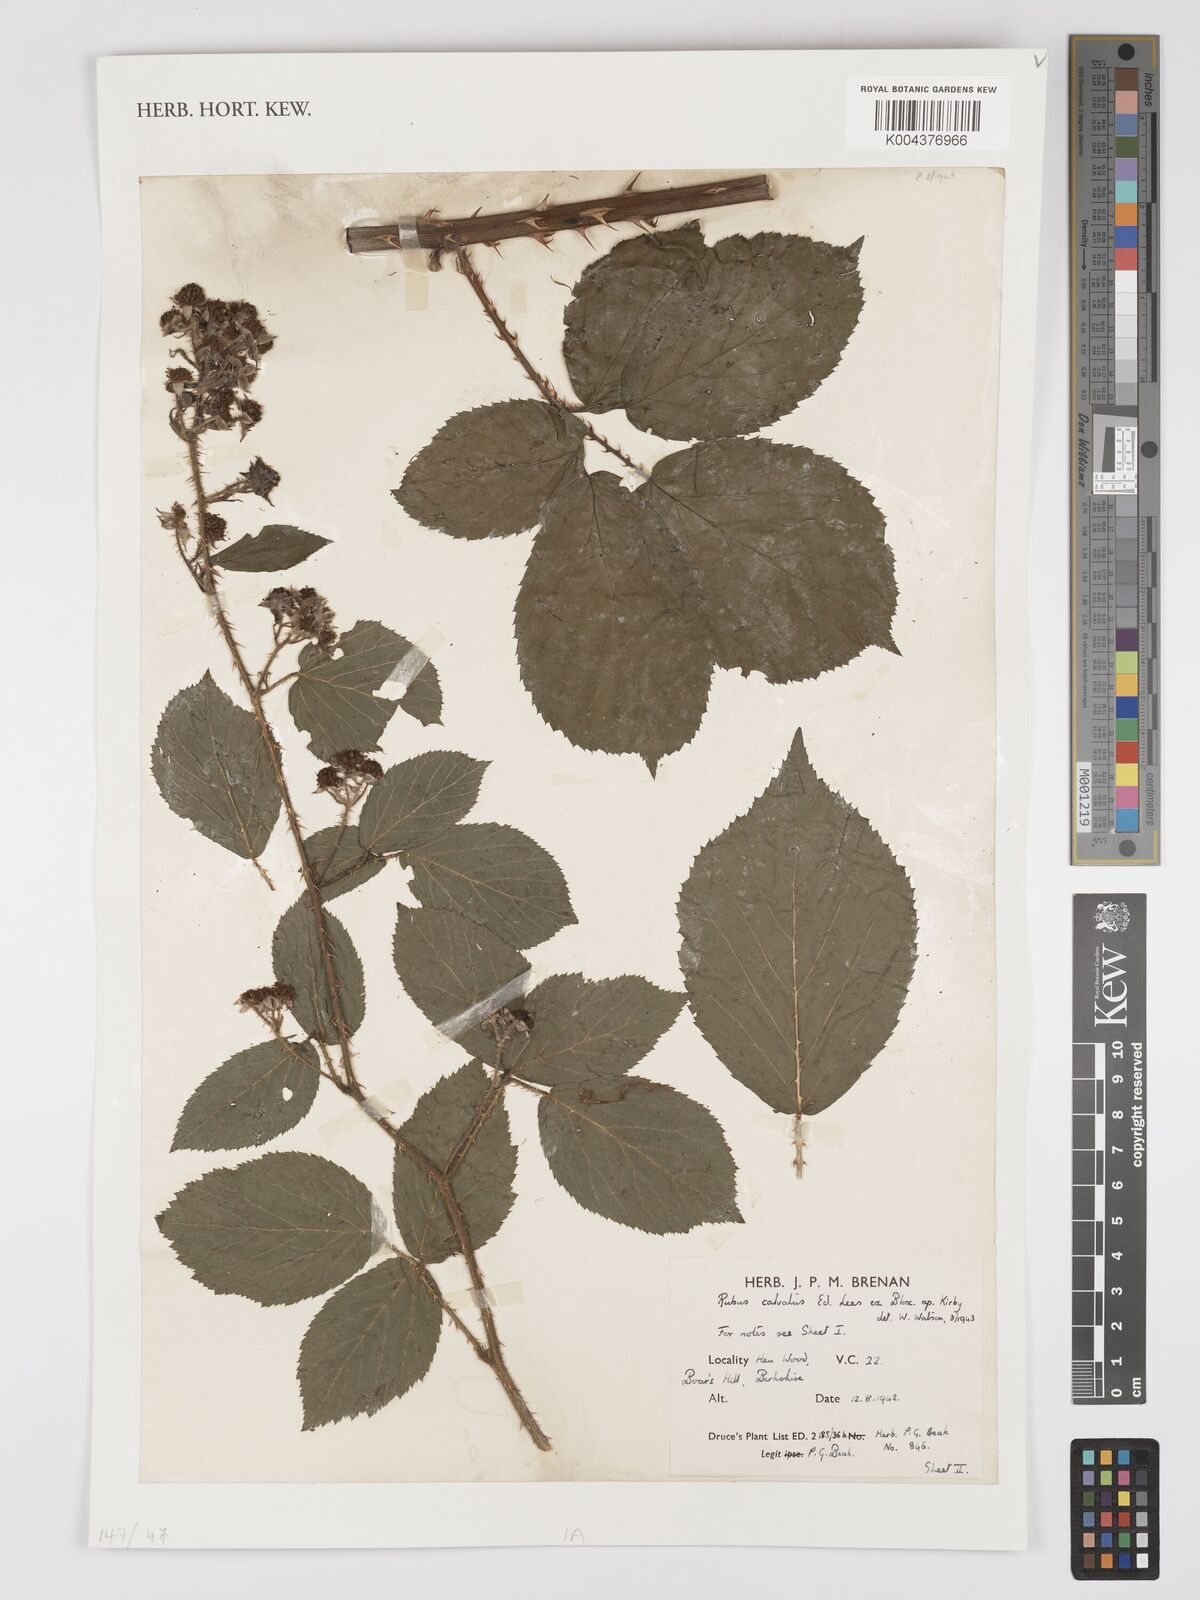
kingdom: Plantae
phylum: Tracheophyta
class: Magnoliopsida
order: Rosales
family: Rosaceae
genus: Rubus
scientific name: Rubus calvatus
